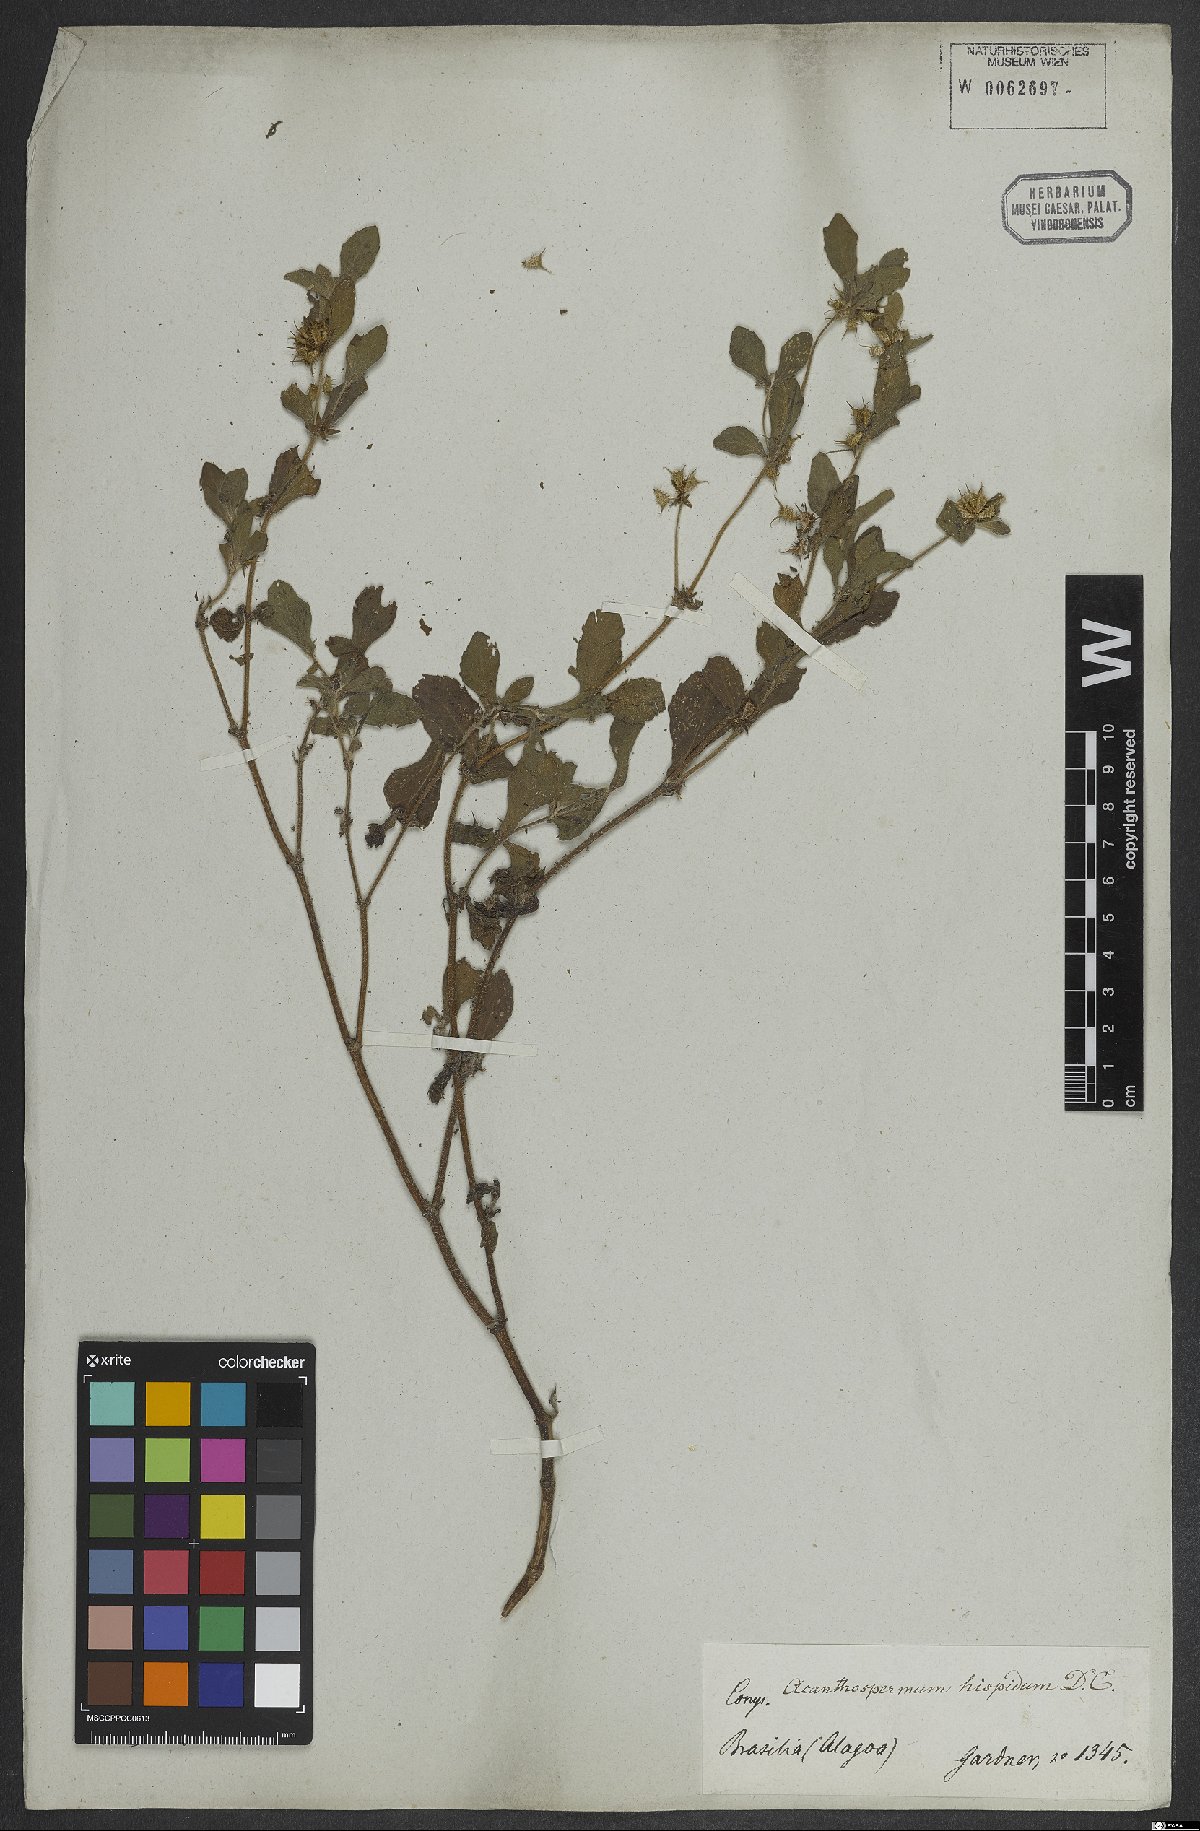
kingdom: Plantae
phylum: Tracheophyta
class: Magnoliopsida
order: Asterales
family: Asteraceae
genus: Acanthospermum
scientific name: Acanthospermum hispidum
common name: Hispid starbur
